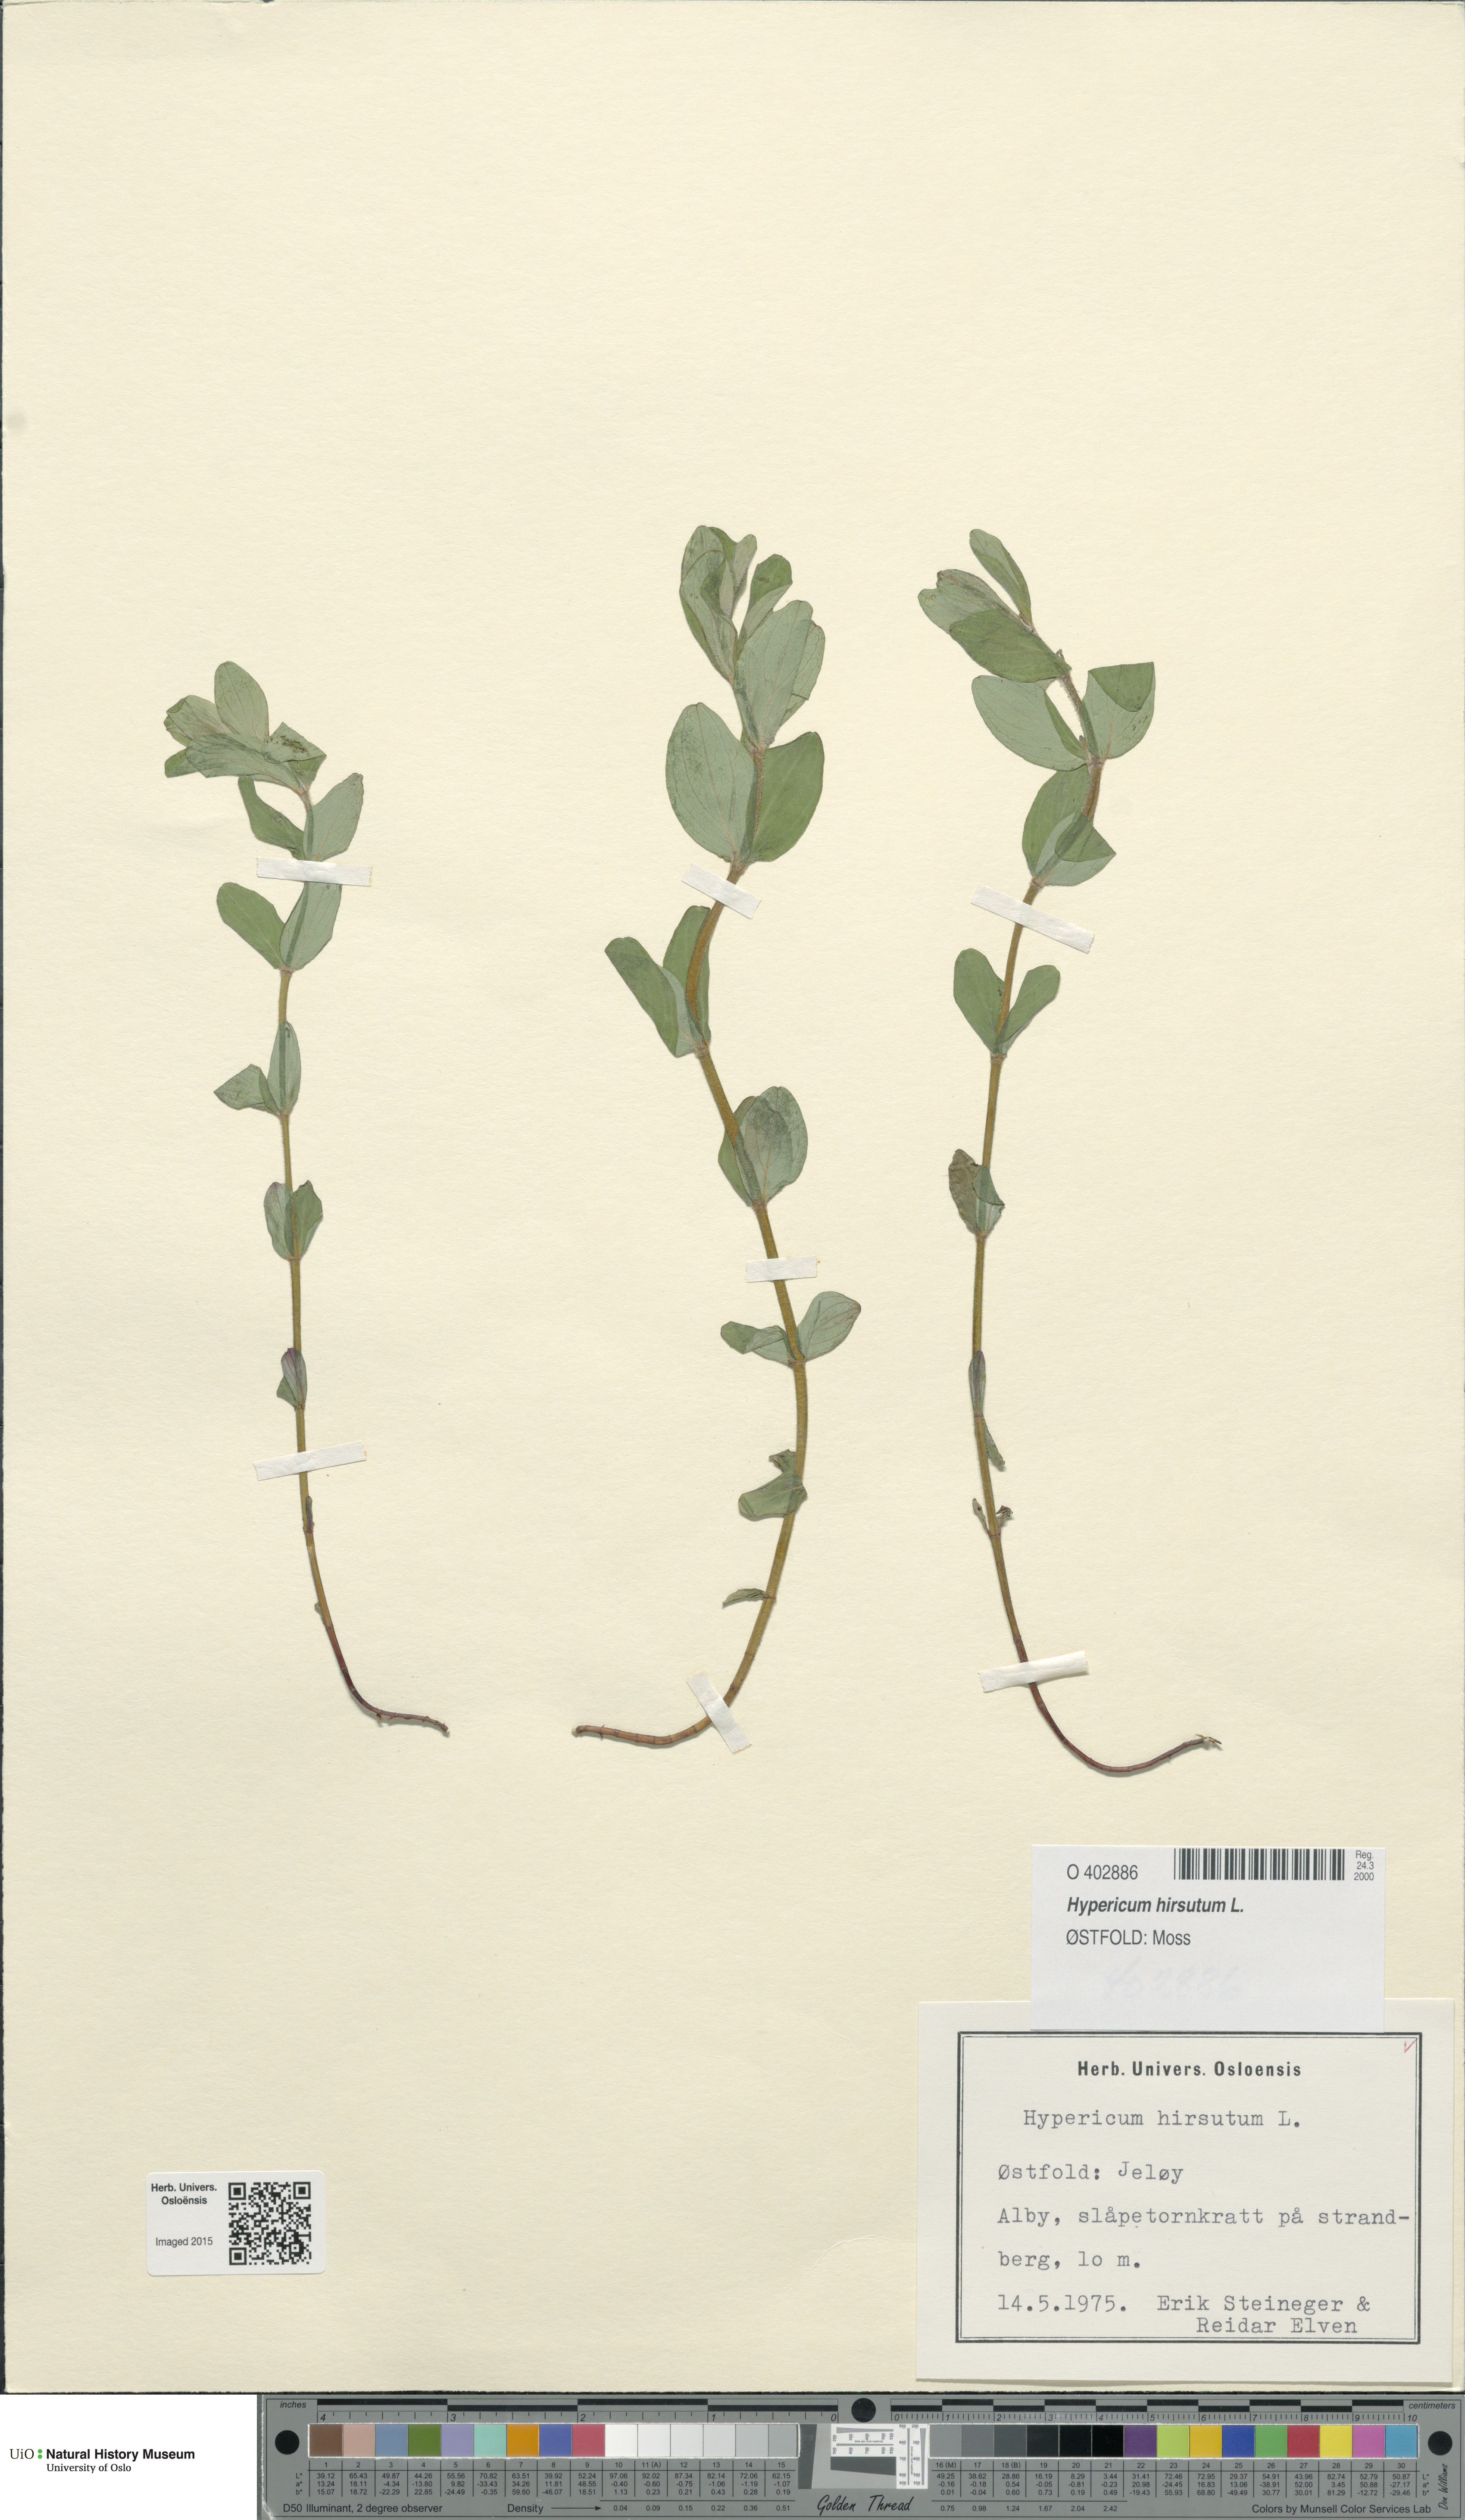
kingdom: Plantae
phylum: Tracheophyta
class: Magnoliopsida
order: Malpighiales
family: Hypericaceae
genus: Hypericum
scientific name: Hypericum hirsutum
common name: Hairy st. john's-wort
